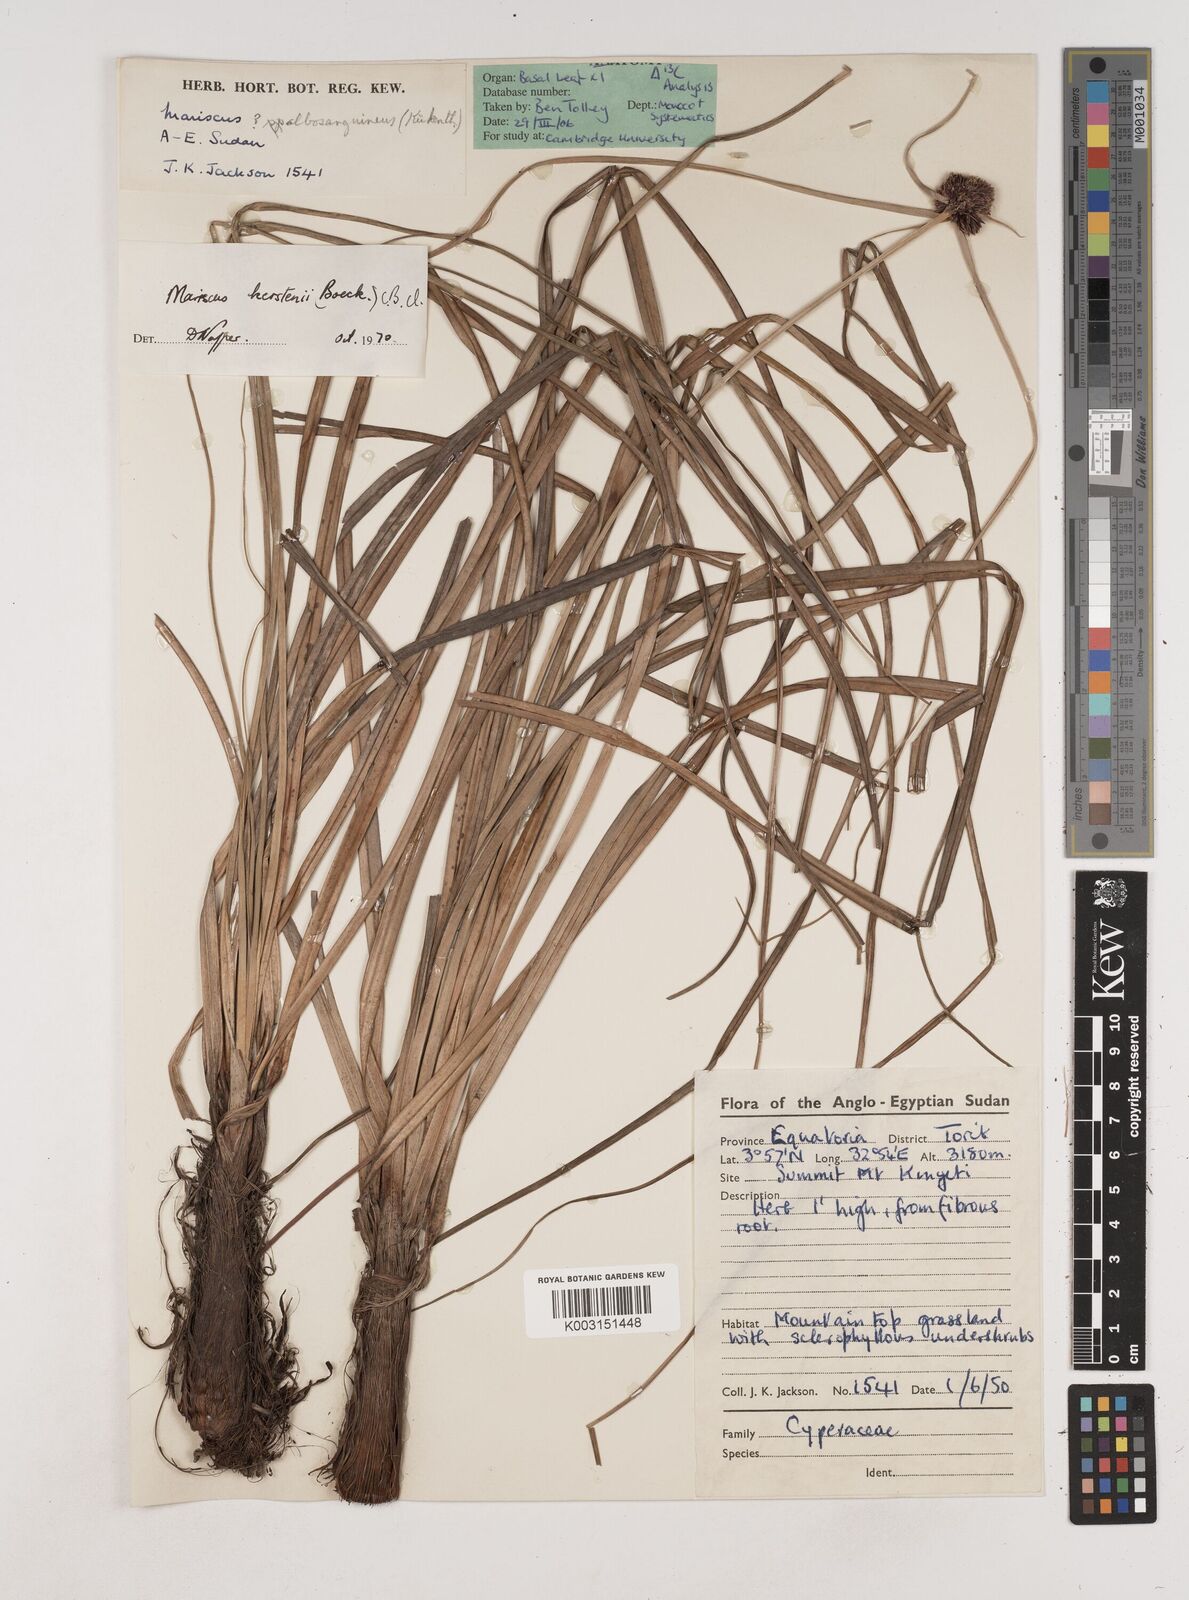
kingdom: Plantae
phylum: Tracheophyta
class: Liliopsida
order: Poales
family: Cyperaceae
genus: Cyperus
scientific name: Cyperus kerstenii
